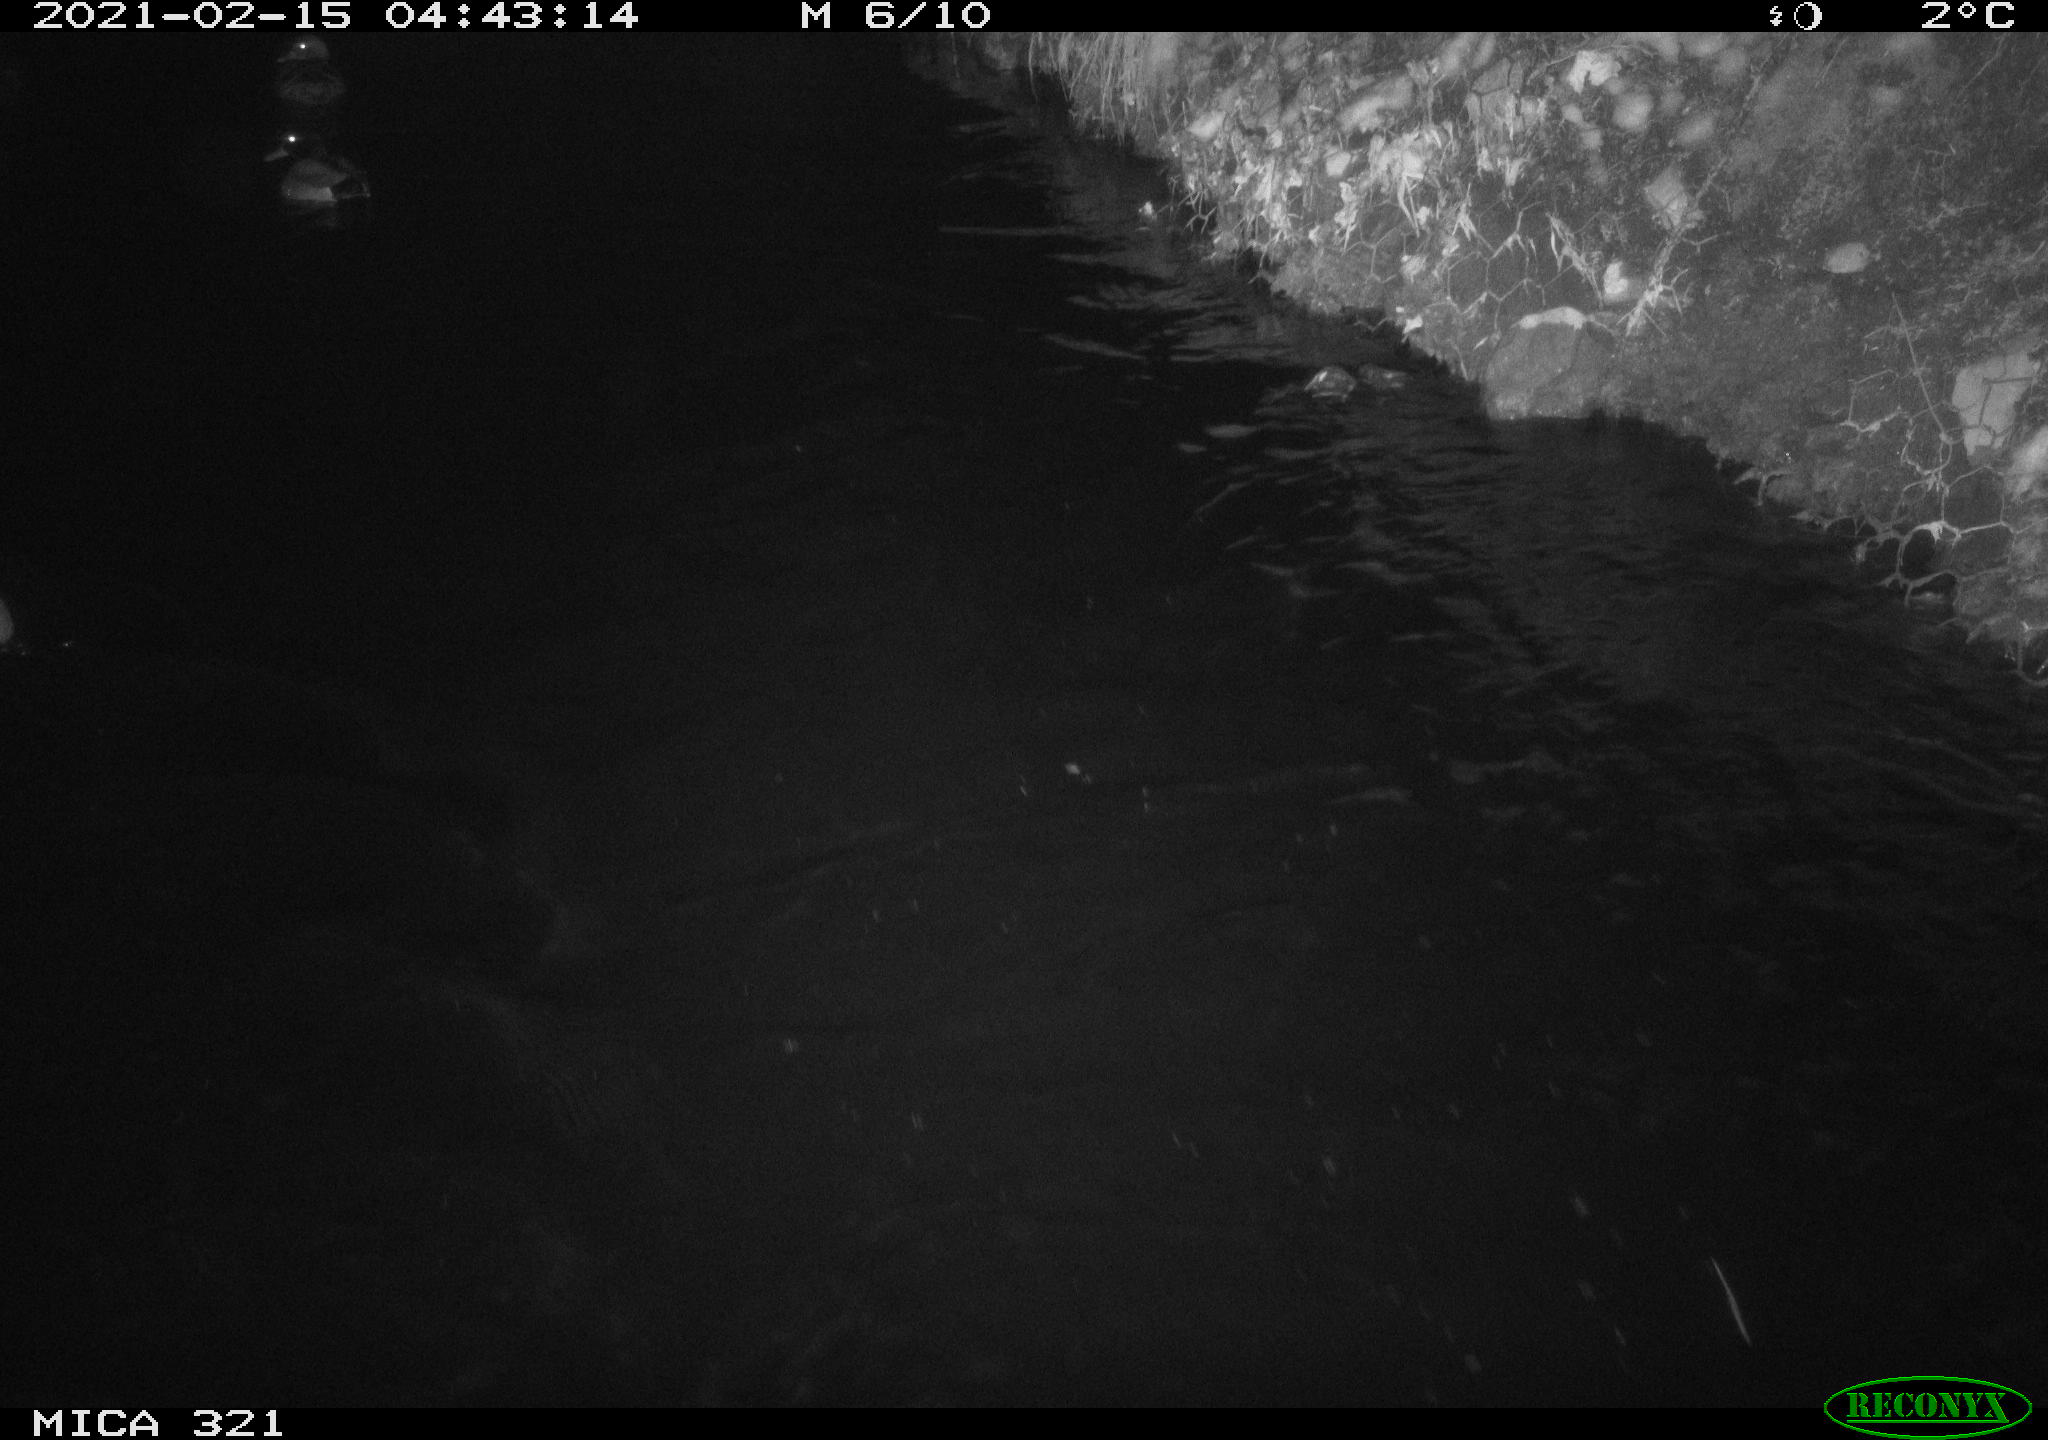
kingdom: Animalia
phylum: Chordata
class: Aves
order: Anseriformes
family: Anatidae
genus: Anas
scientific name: Anas platyrhynchos
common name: Mallard
